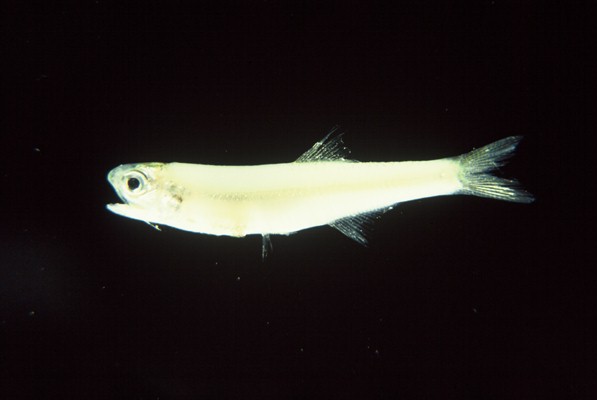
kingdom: Animalia
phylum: Chordata
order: Clupeiformes
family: Engraulidae
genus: Thryssa
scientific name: Thryssa vitrirostris
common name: Orangemouth anchovy
